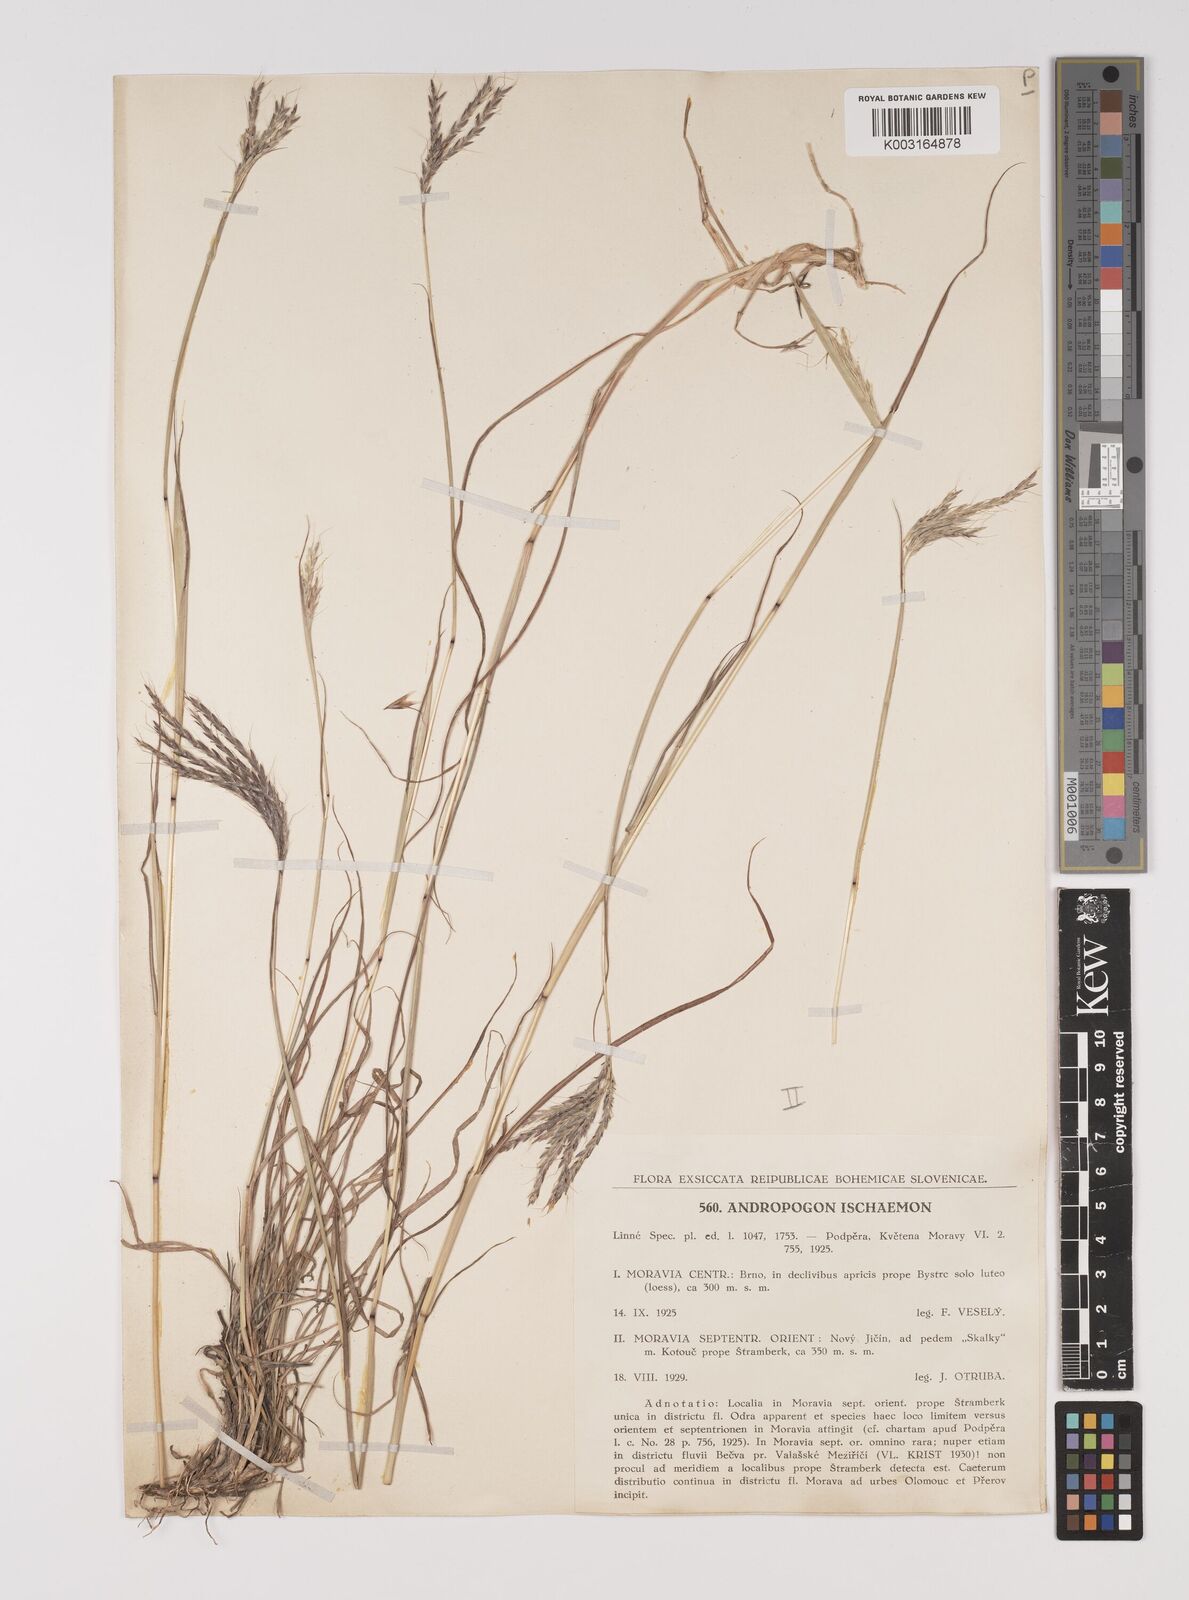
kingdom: Plantae
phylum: Tracheophyta
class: Liliopsida
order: Poales
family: Poaceae
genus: Bothriochloa
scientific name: Bothriochloa ischaemum
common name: Yellow bluestem
